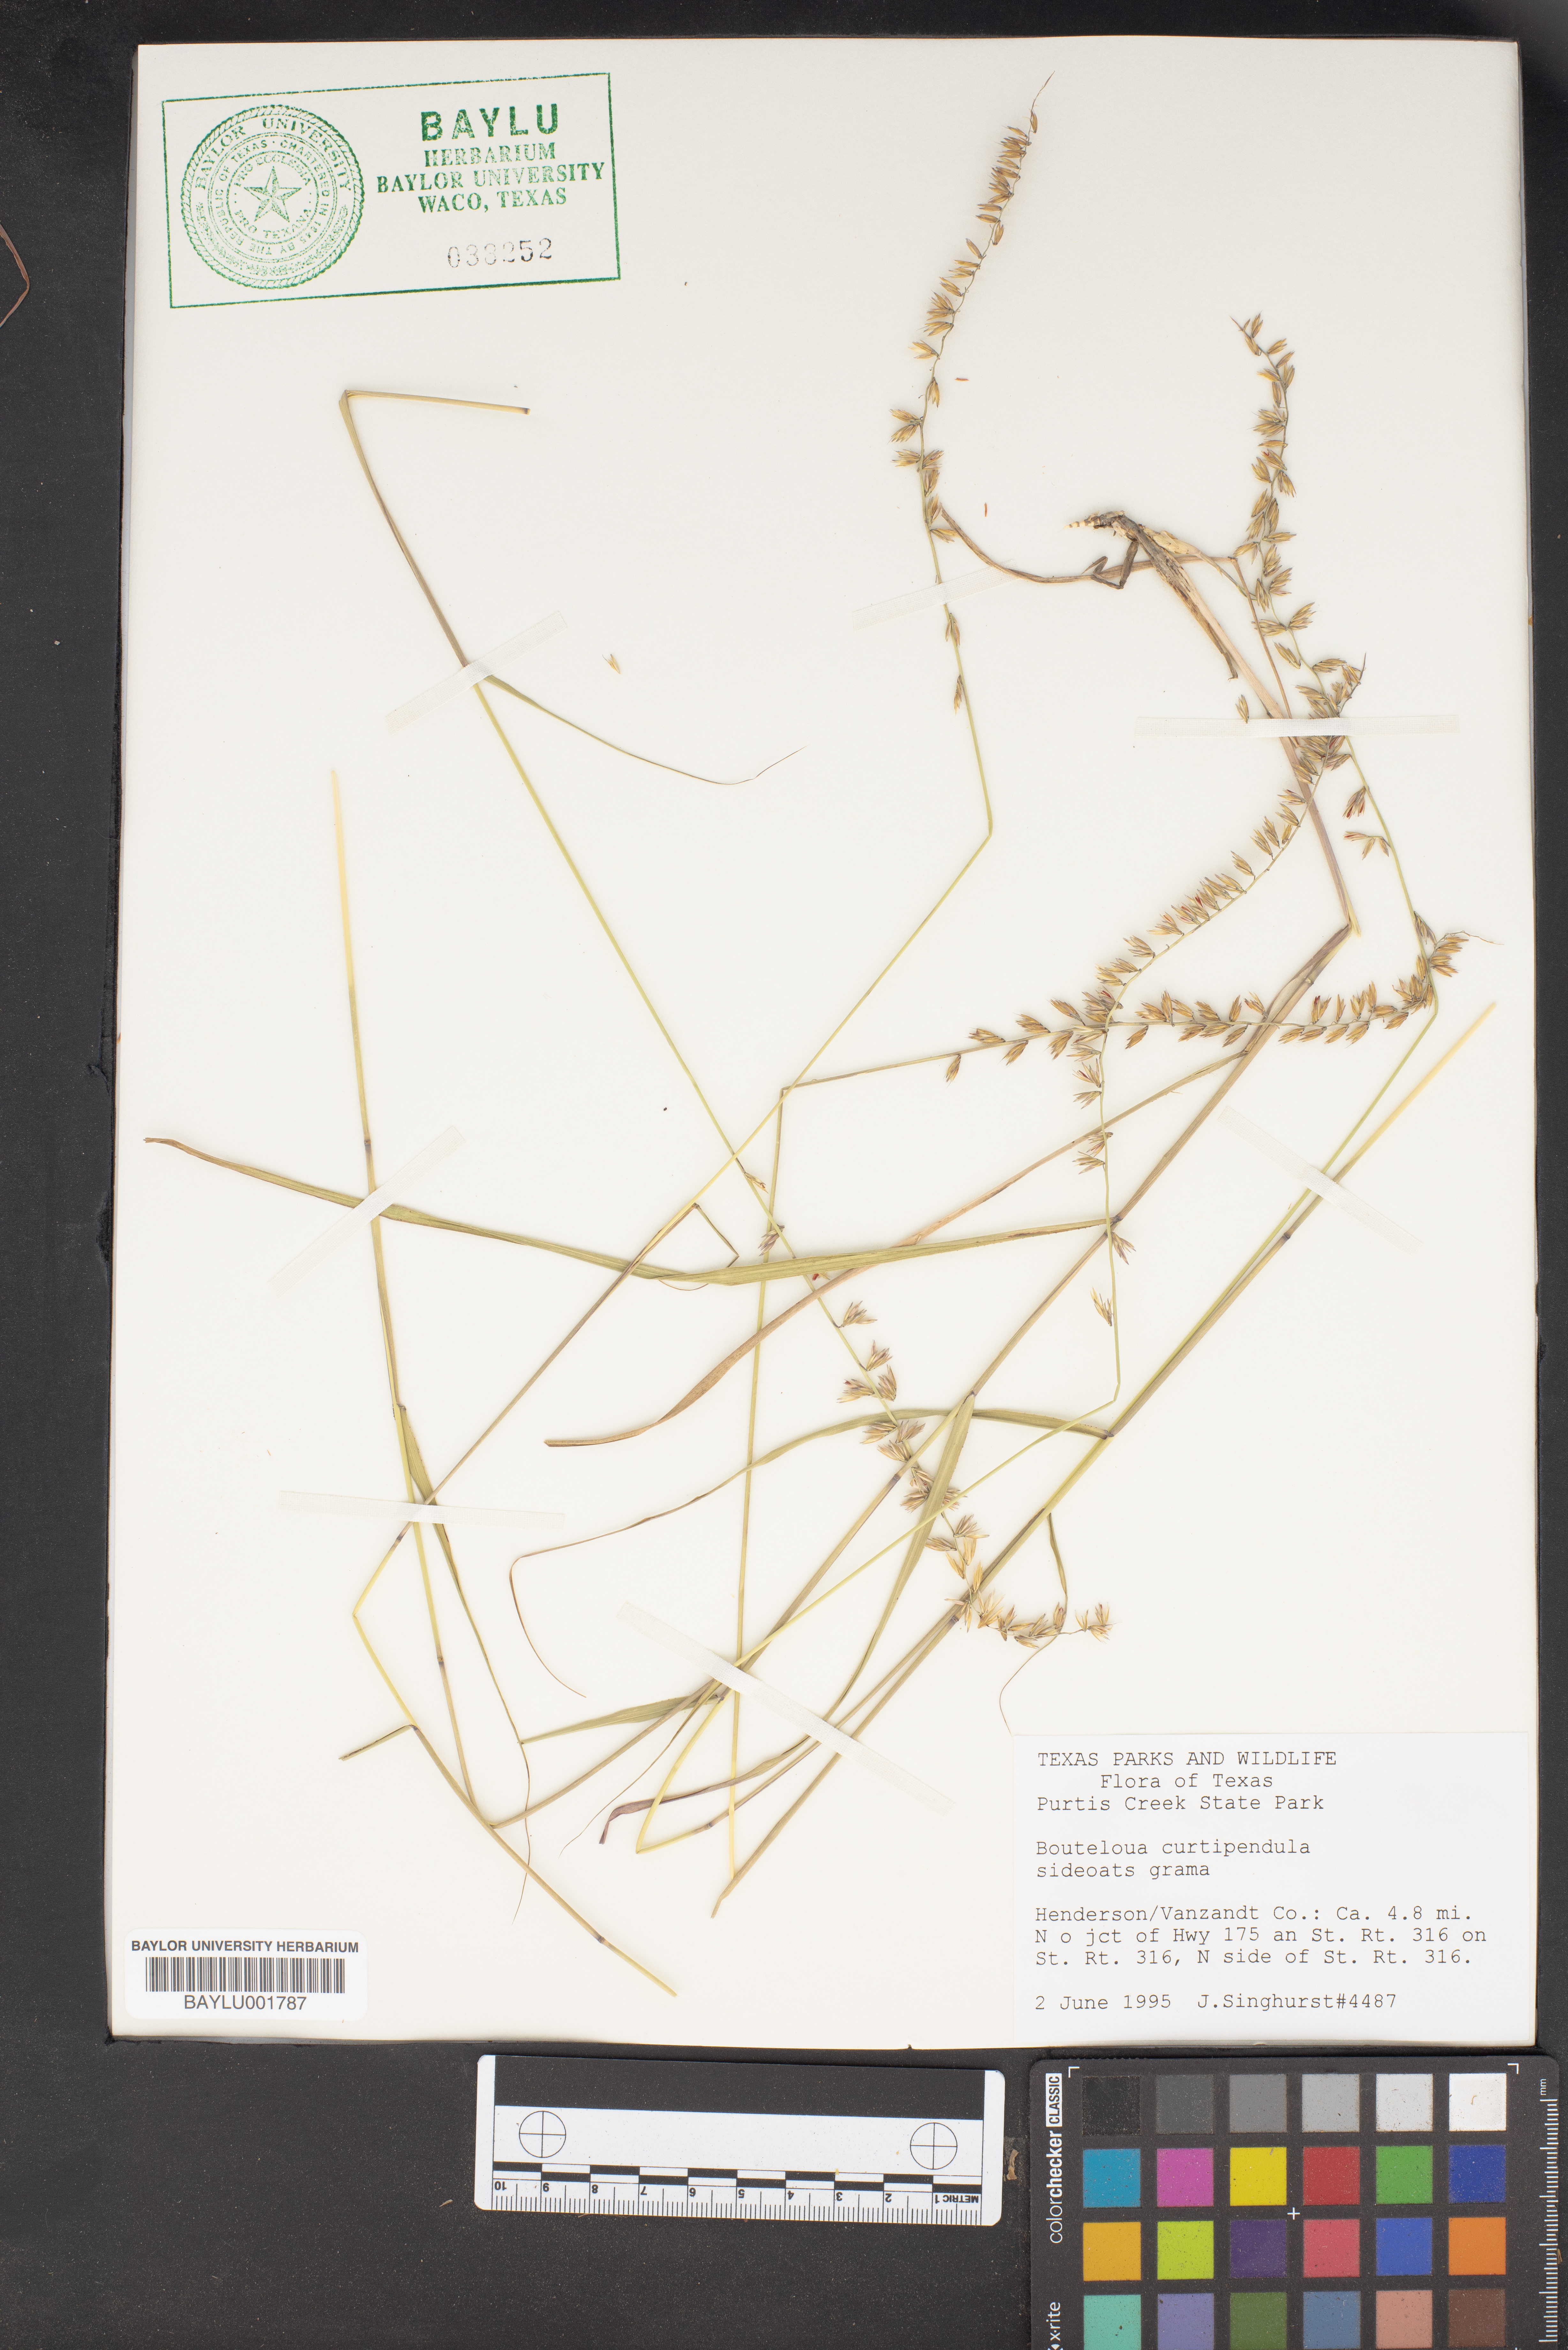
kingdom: Plantae
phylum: Tracheophyta
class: Liliopsida
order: Poales
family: Poaceae
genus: Bouteloua
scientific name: Bouteloua curtipendula
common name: Side-oats grama
